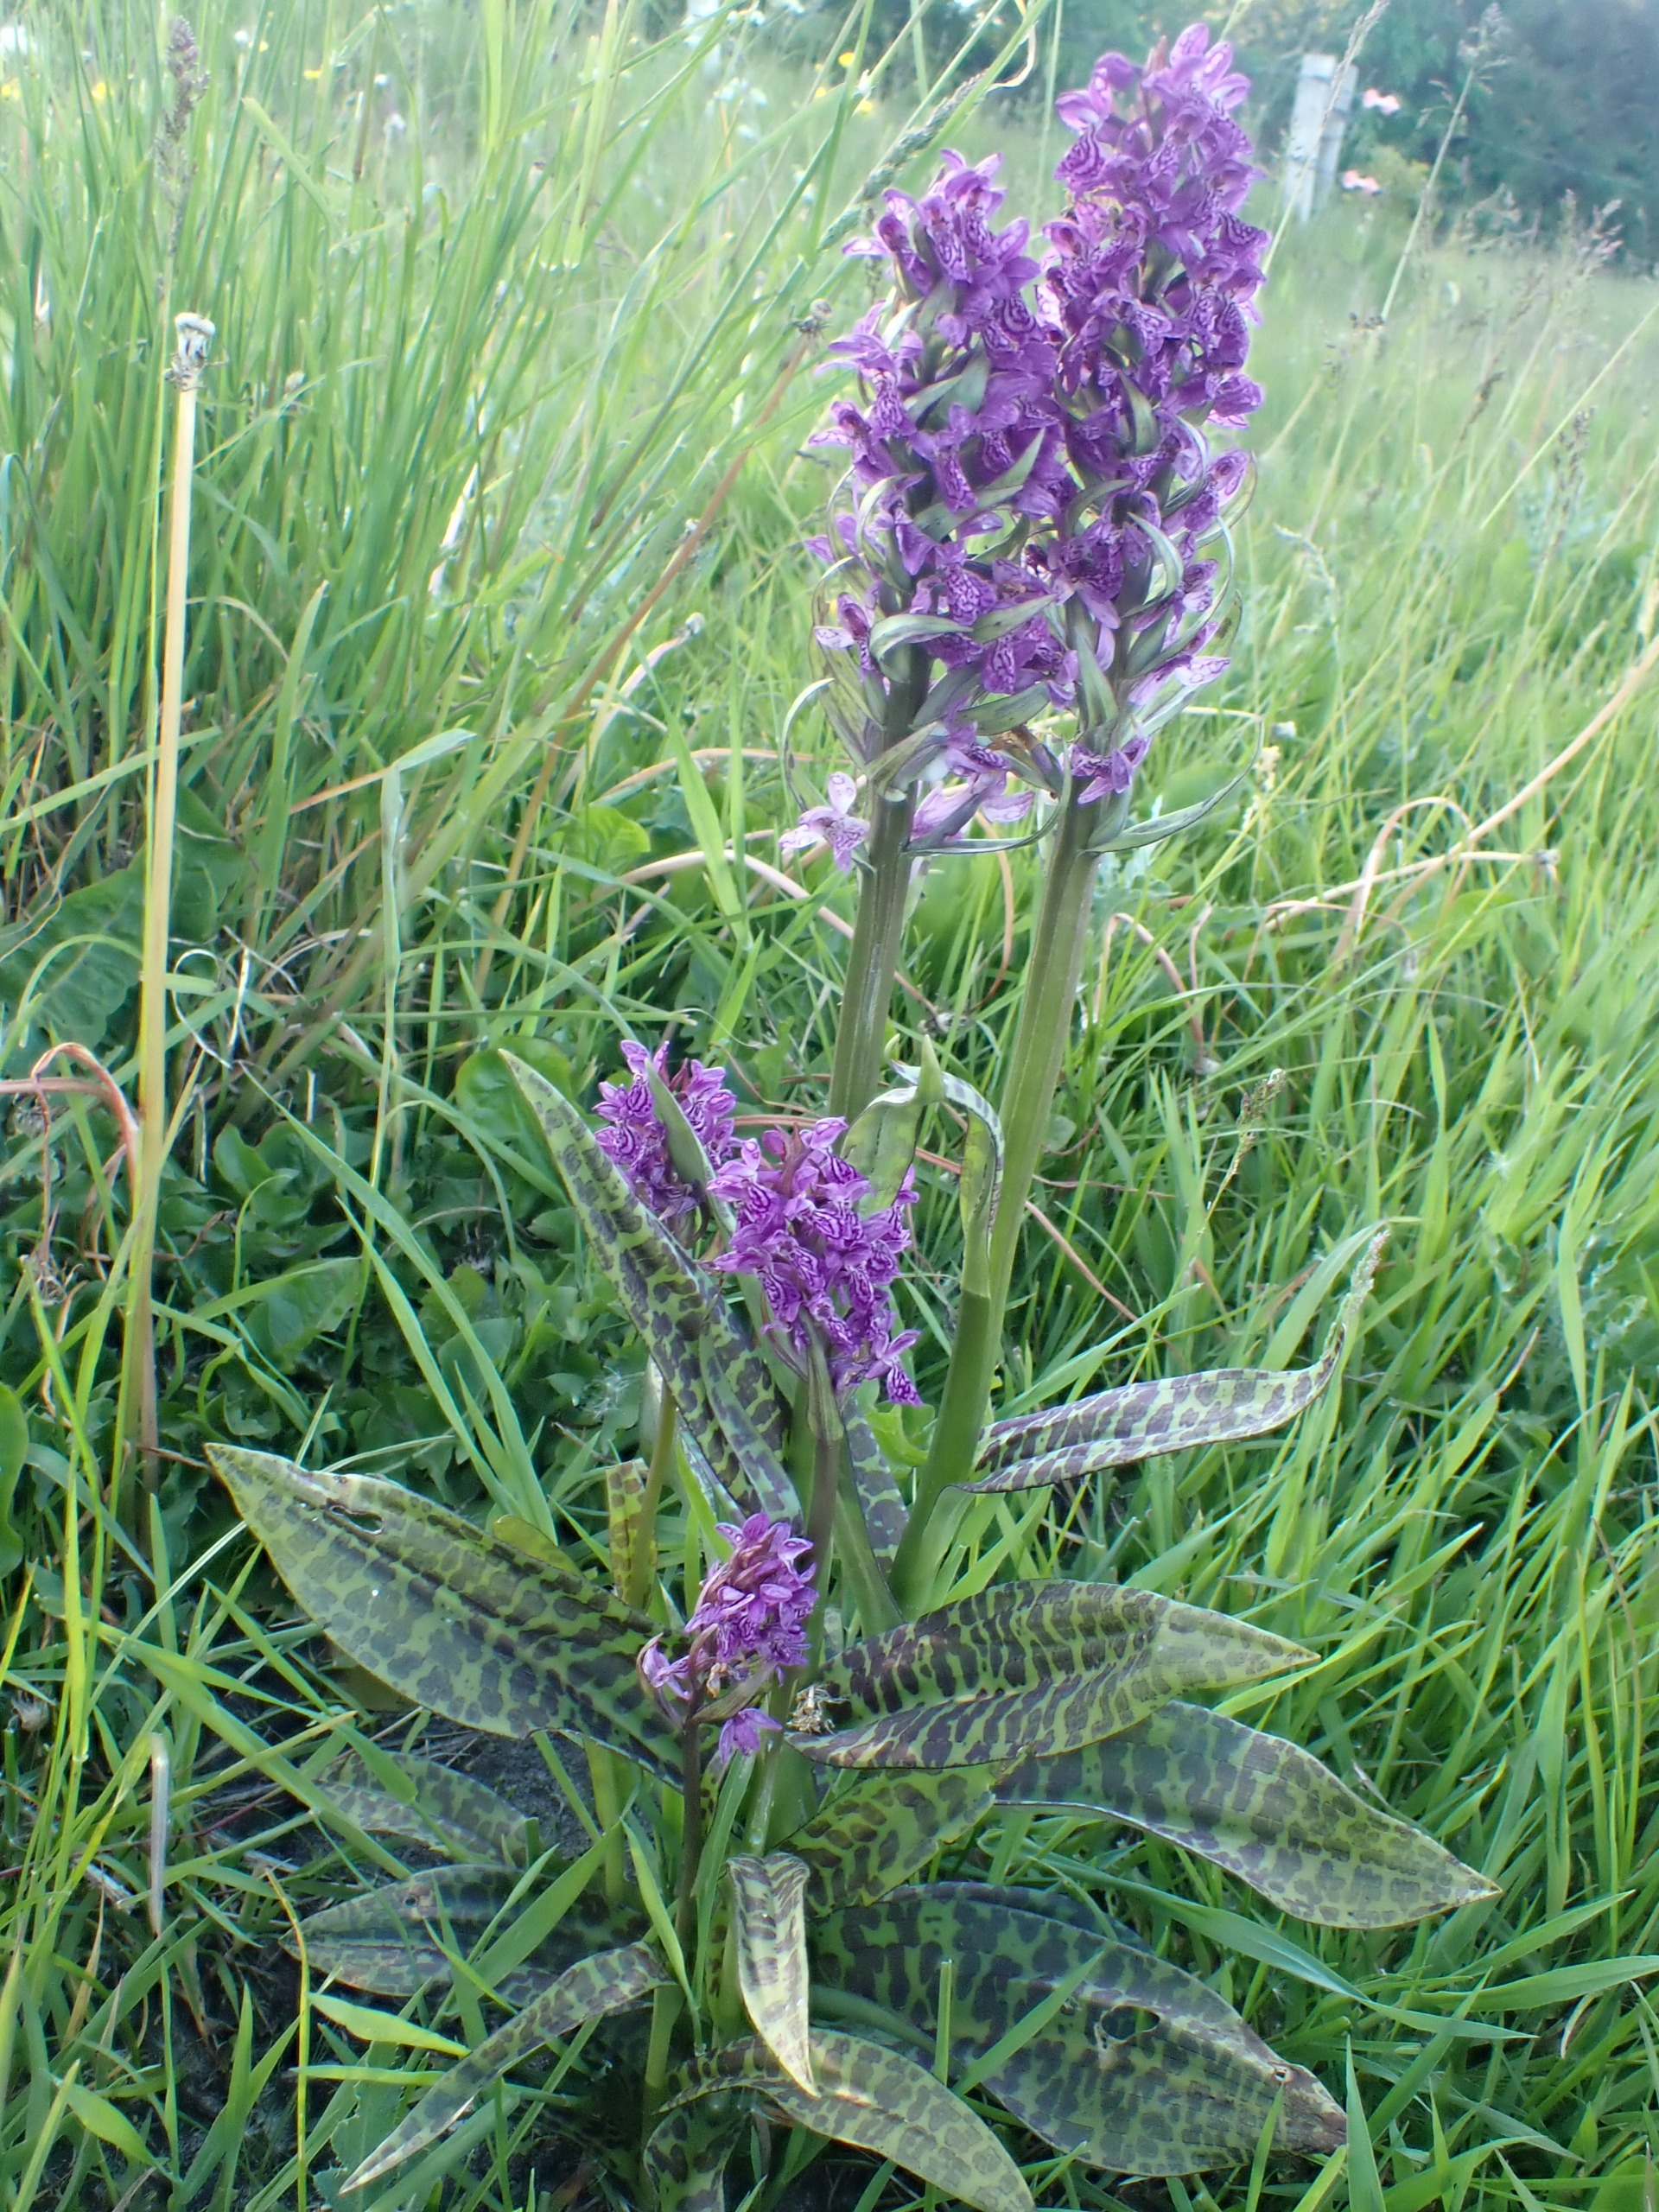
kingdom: Plantae
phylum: Tracheophyta
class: Liliopsida
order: Asparagales
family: Orchidaceae
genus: Dactylorhiza
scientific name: Dactylorhiza majalis
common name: Maj-gøgeurt
